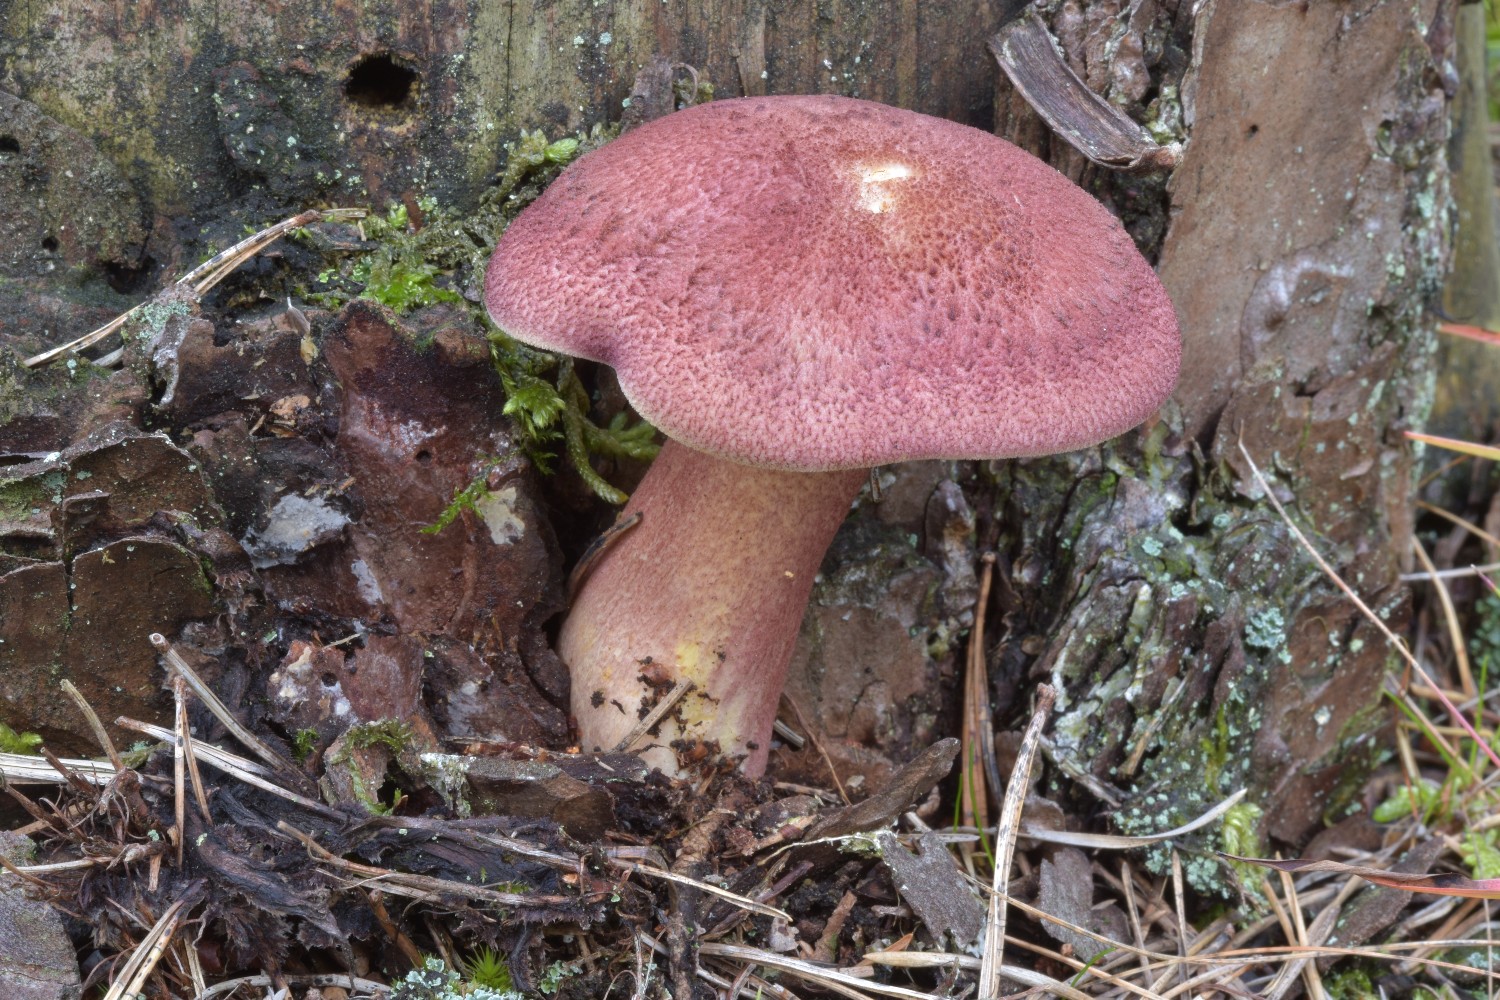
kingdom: Fungi
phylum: Basidiomycota
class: Agaricomycetes
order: Agaricales
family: Tricholomataceae
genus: Tricholomopsis
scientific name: Tricholomopsis rutilans
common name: purpur-væbnerhat
